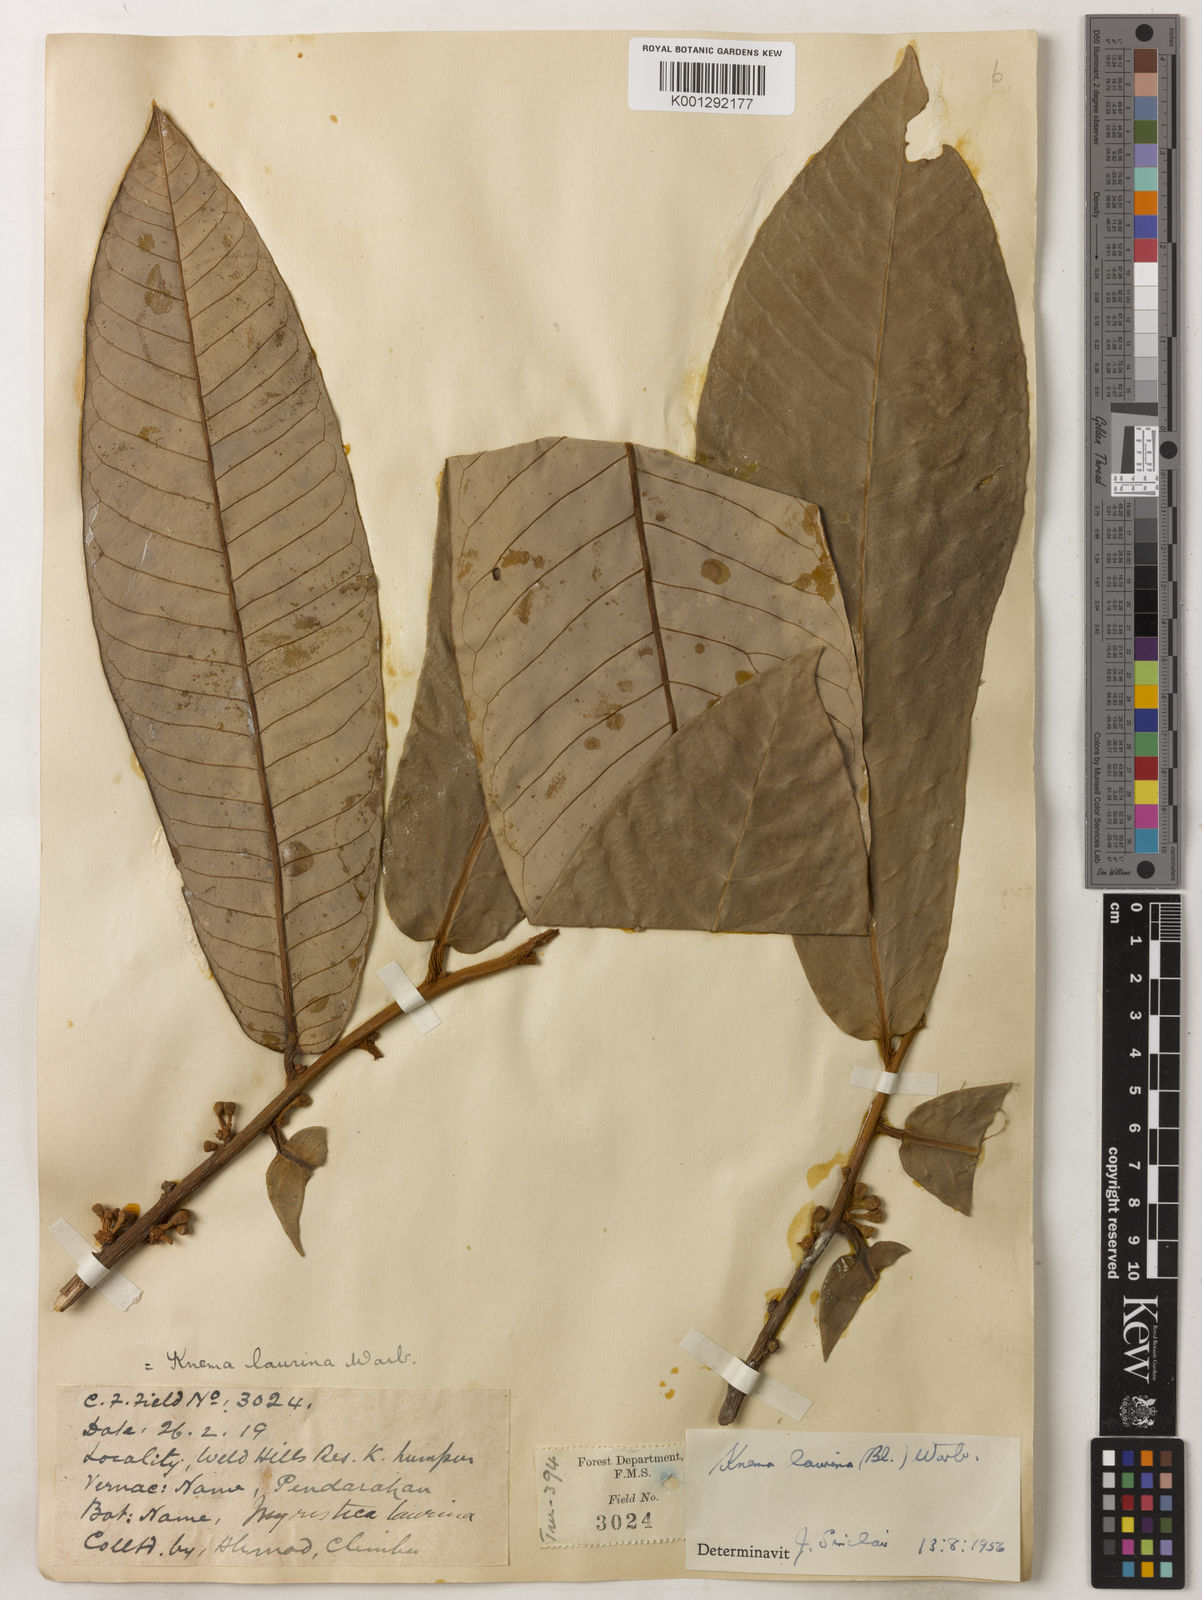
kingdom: Plantae
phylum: Tracheophyta
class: Magnoliopsida
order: Magnoliales
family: Myristicaceae
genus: Knema
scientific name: Knema laurina
